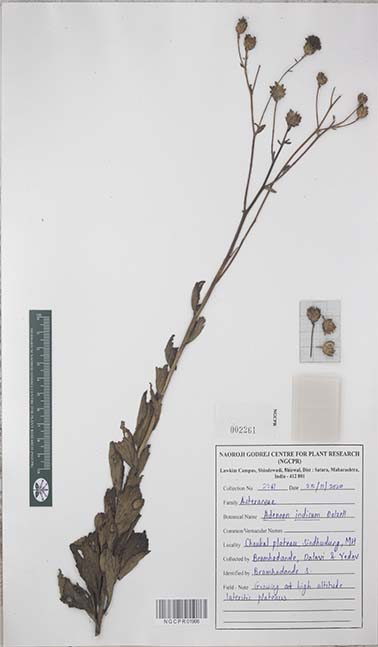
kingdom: Plantae
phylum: Tracheophyta
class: Magnoliopsida
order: Asterales
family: Asteraceae
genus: Adenoon
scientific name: Adenoon indicum
